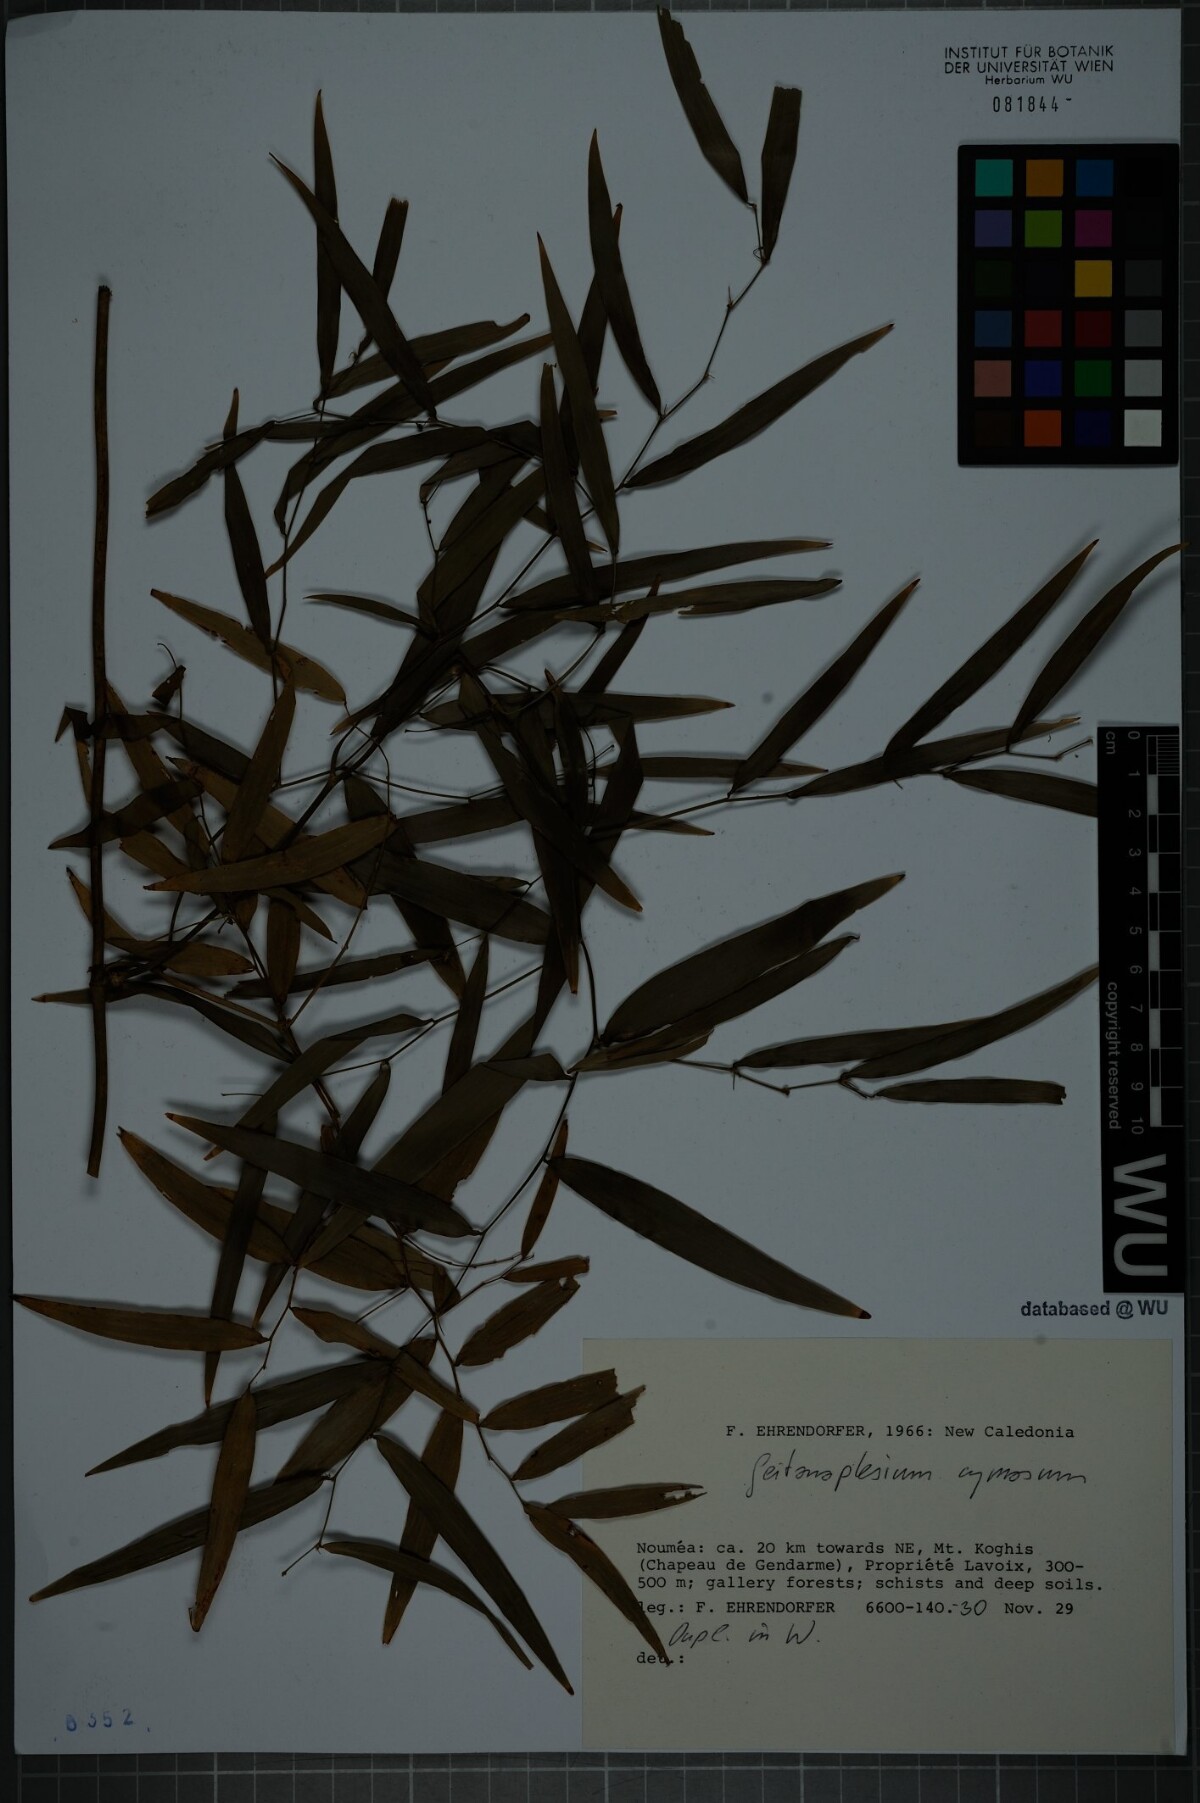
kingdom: Plantae
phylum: Tracheophyta
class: Liliopsida
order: Asparagales
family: Asphodelaceae
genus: Geitonoplesium
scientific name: Geitonoplesium cymosum
